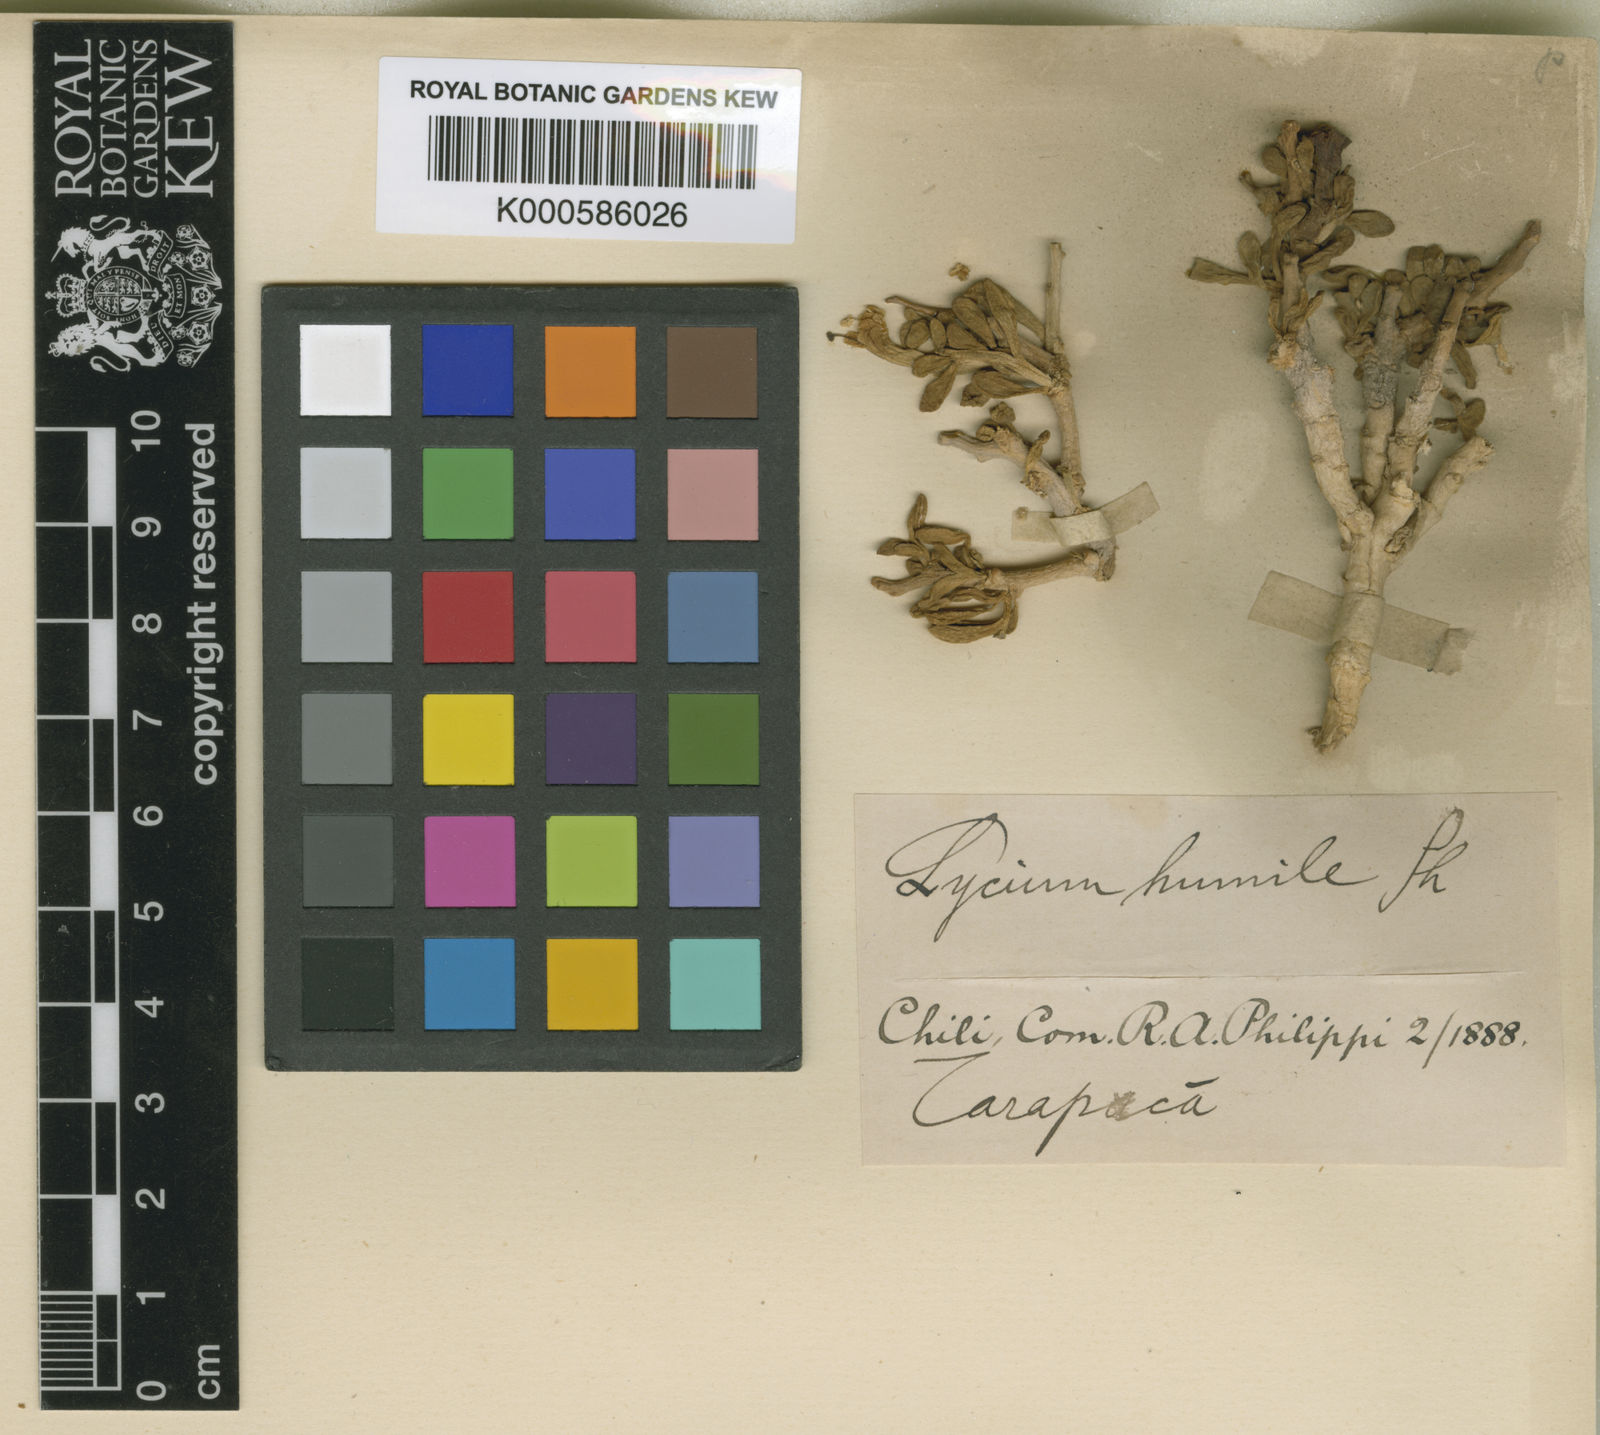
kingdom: Plantae
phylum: Tracheophyta
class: Magnoliopsida
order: Solanales
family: Solanaceae
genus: Lycium
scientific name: Lycium humile
